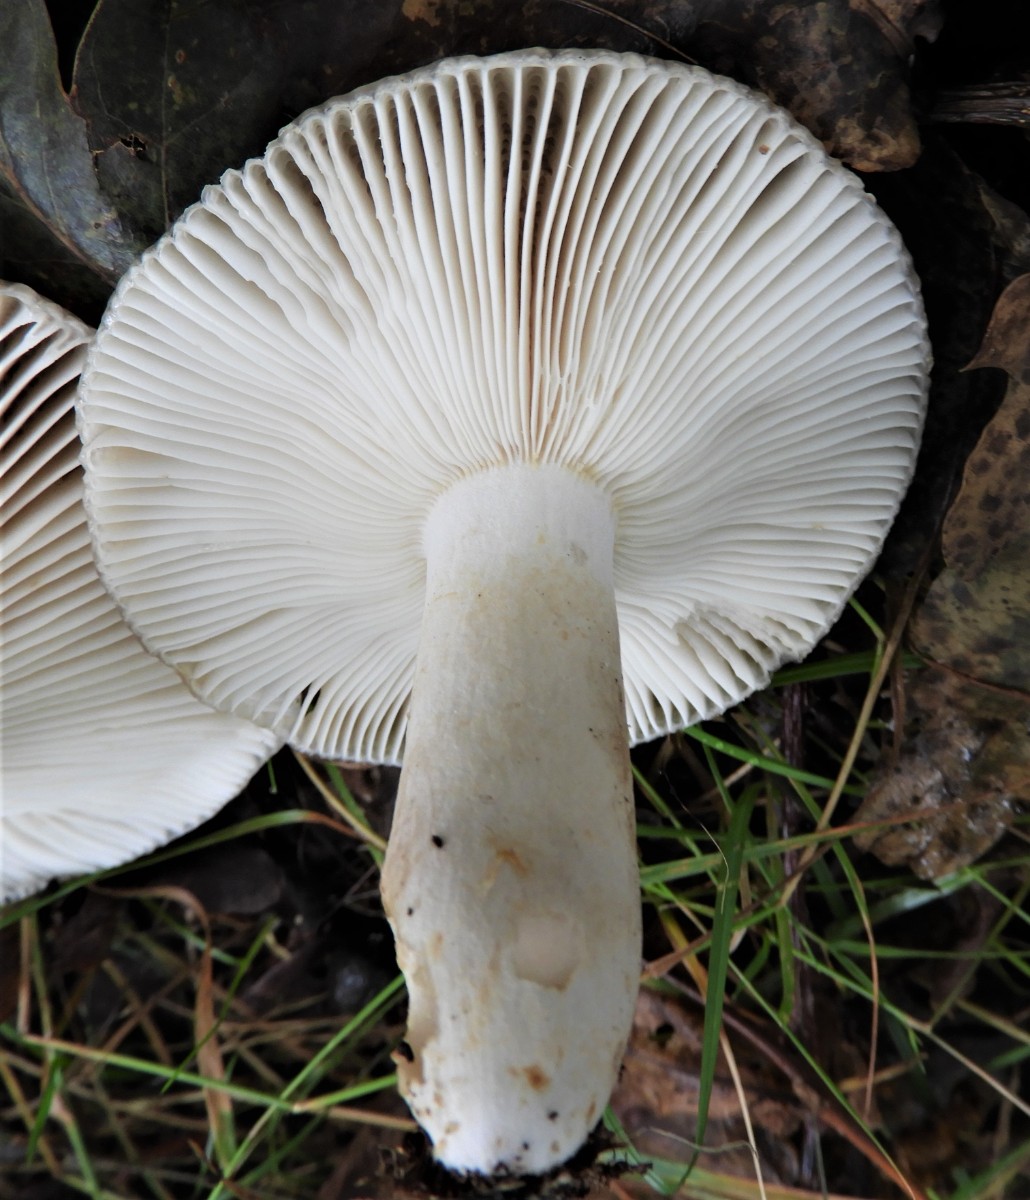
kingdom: Fungi
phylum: Basidiomycota
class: Agaricomycetes
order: Russulales
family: Russulaceae
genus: Russula
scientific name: Russula recondita
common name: mild kam-skørhat
